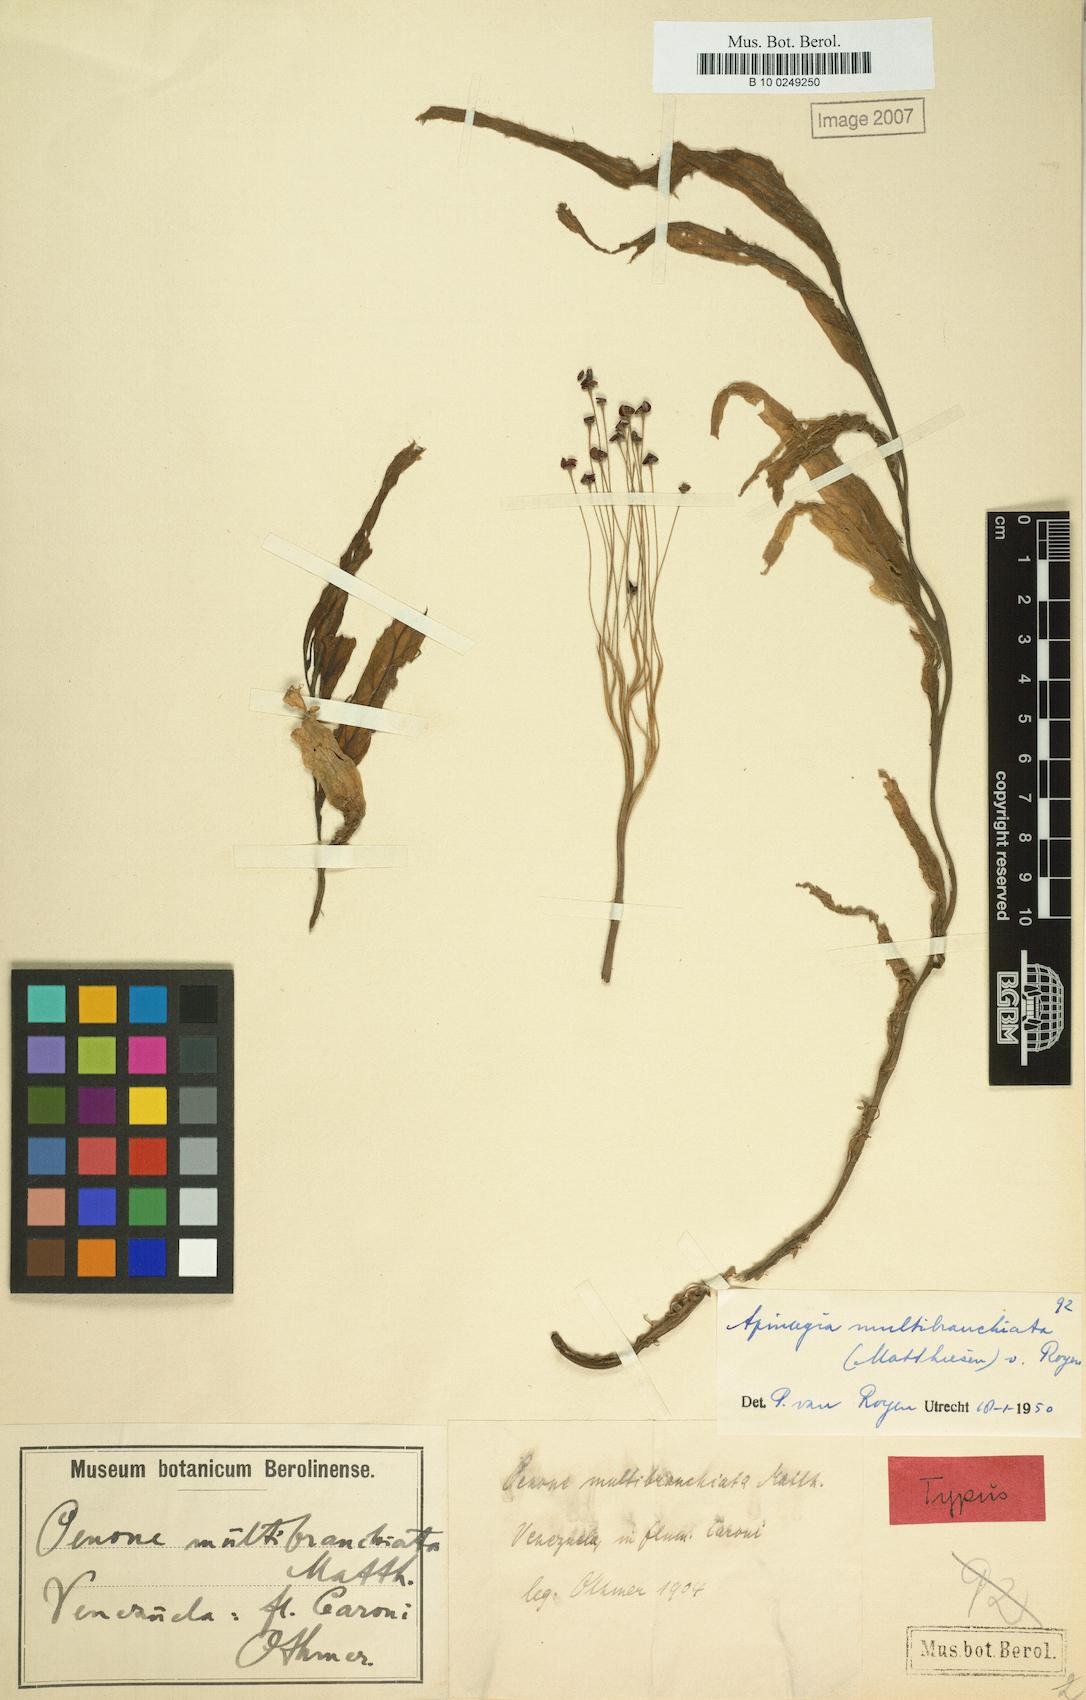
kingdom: Plantae
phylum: Tracheophyta
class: Magnoliopsida
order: Malpighiales
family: Podostemaceae
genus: Apinagia
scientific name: Apinagia multibranchiata
